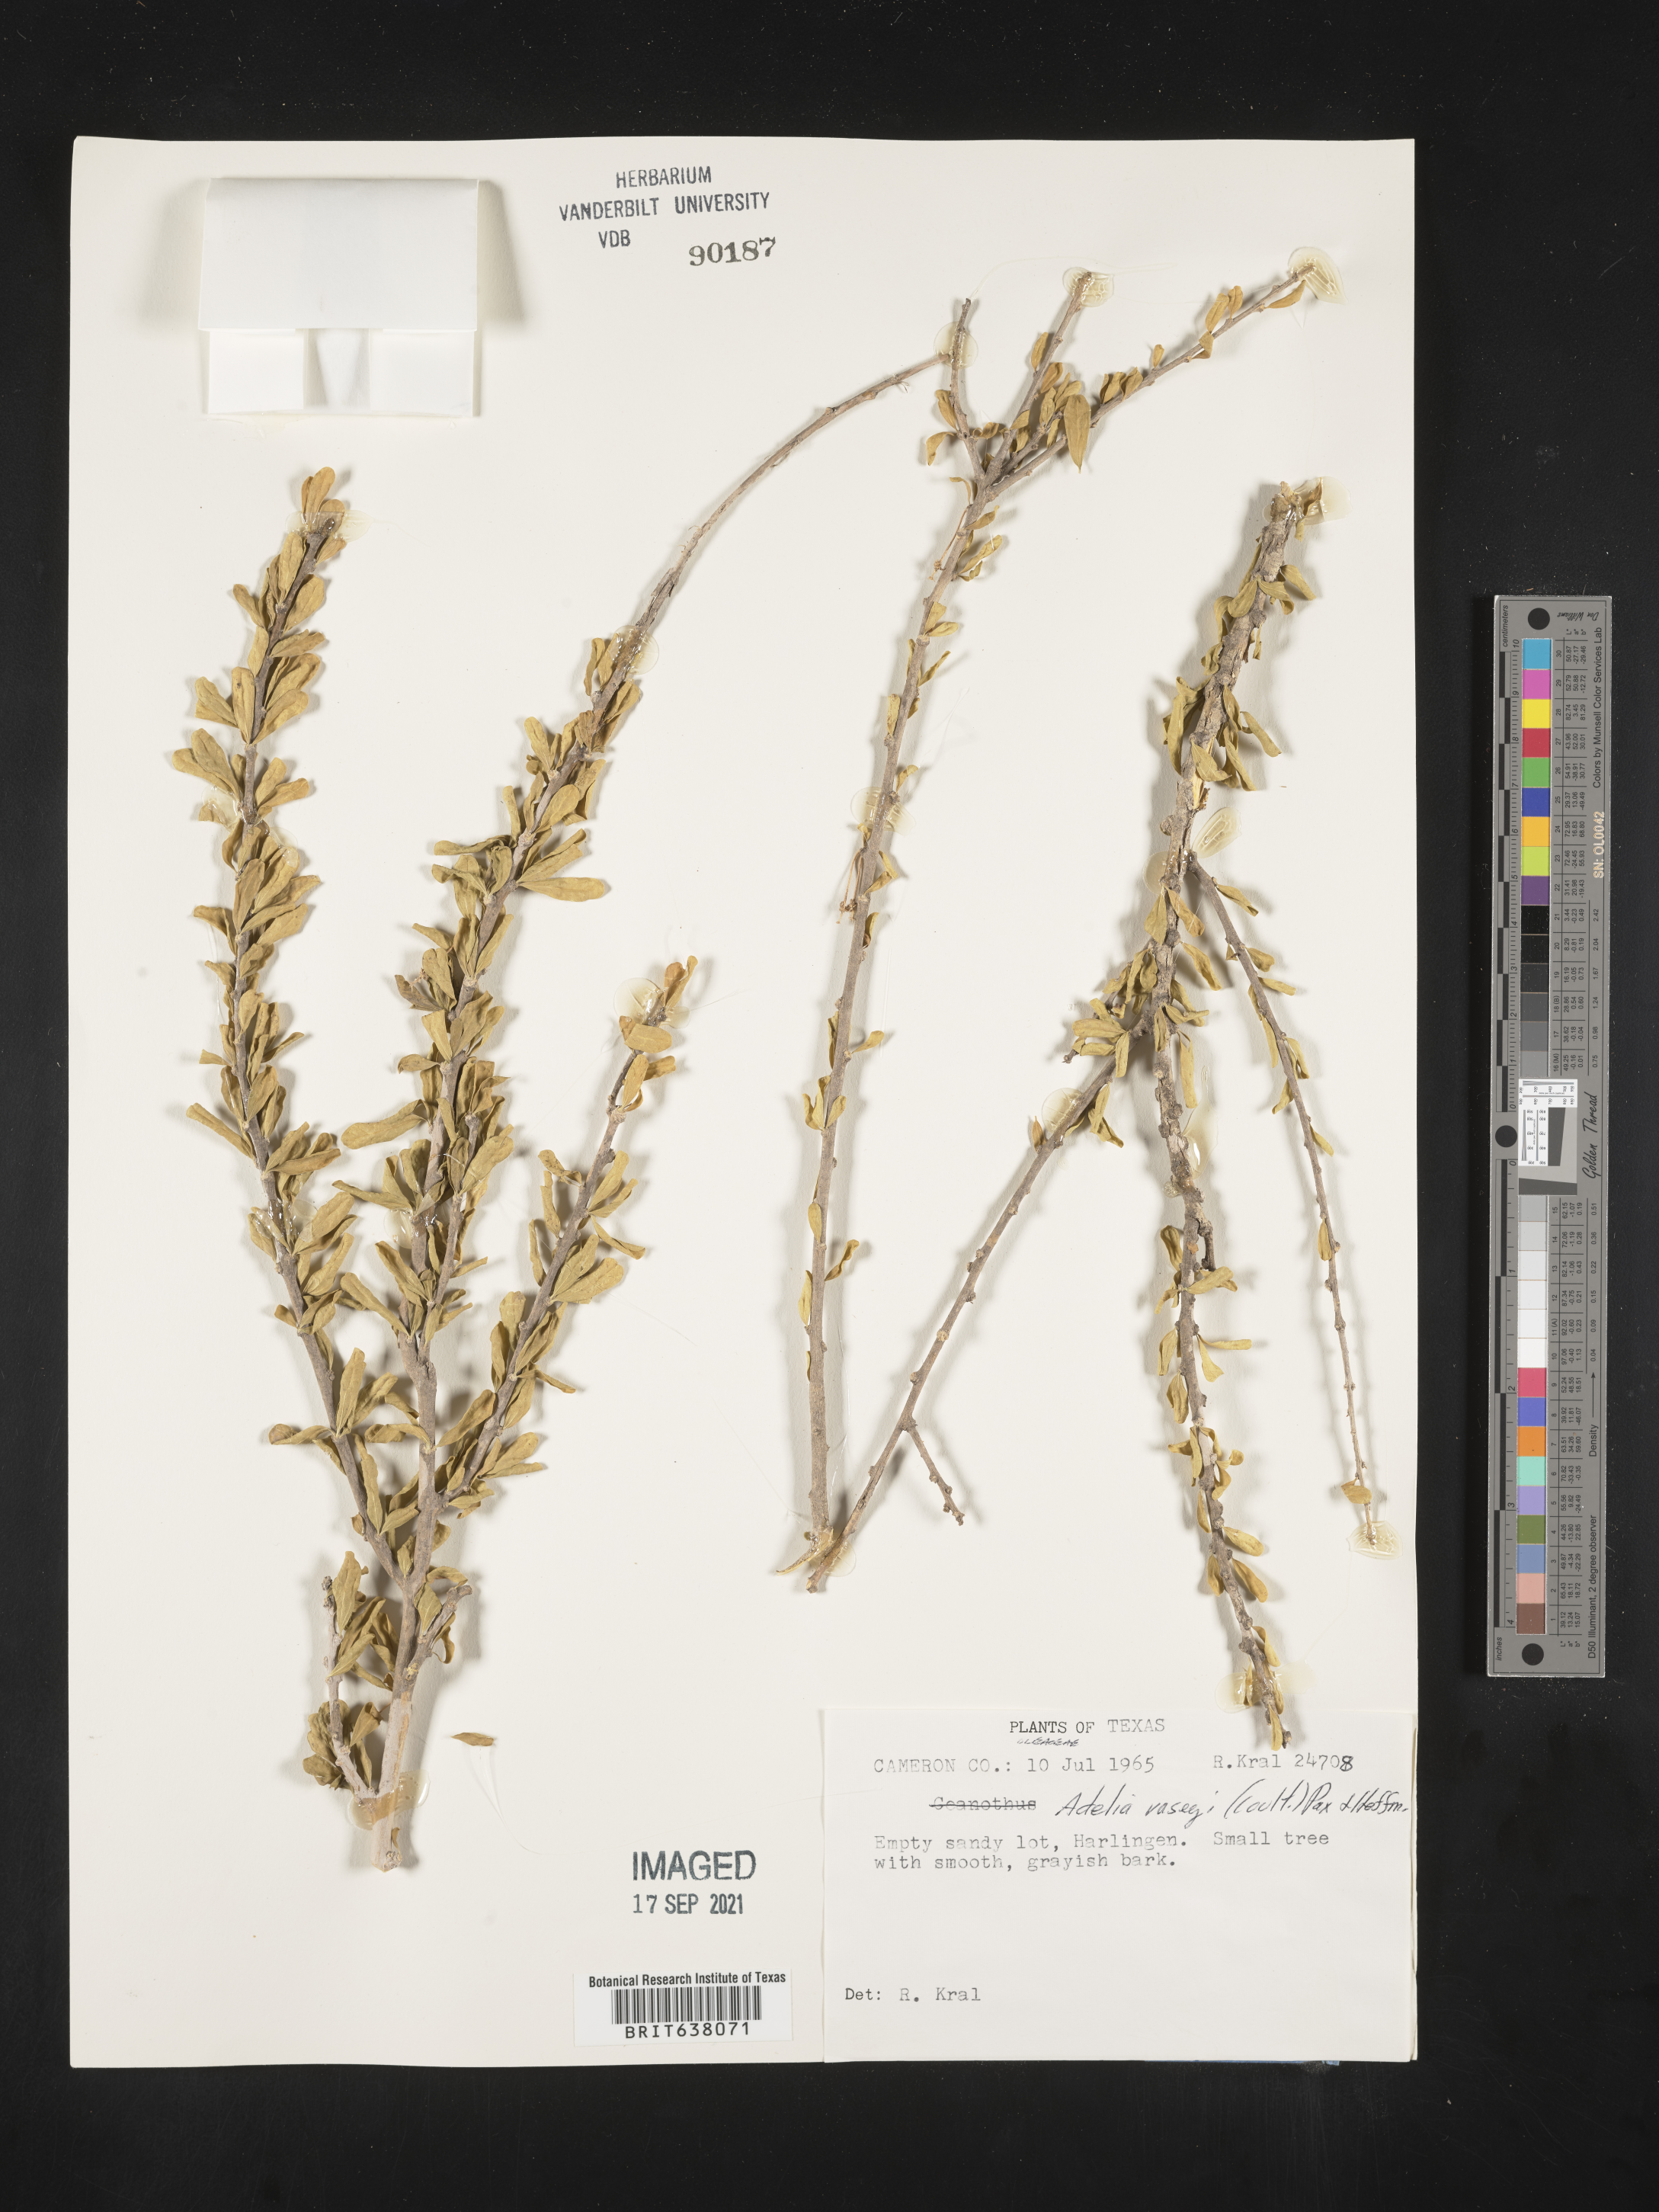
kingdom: Plantae
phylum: Tracheophyta
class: Magnoliopsida
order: Malpighiales
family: Euphorbiaceae
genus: Adelia
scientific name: Adelia vaseyi
